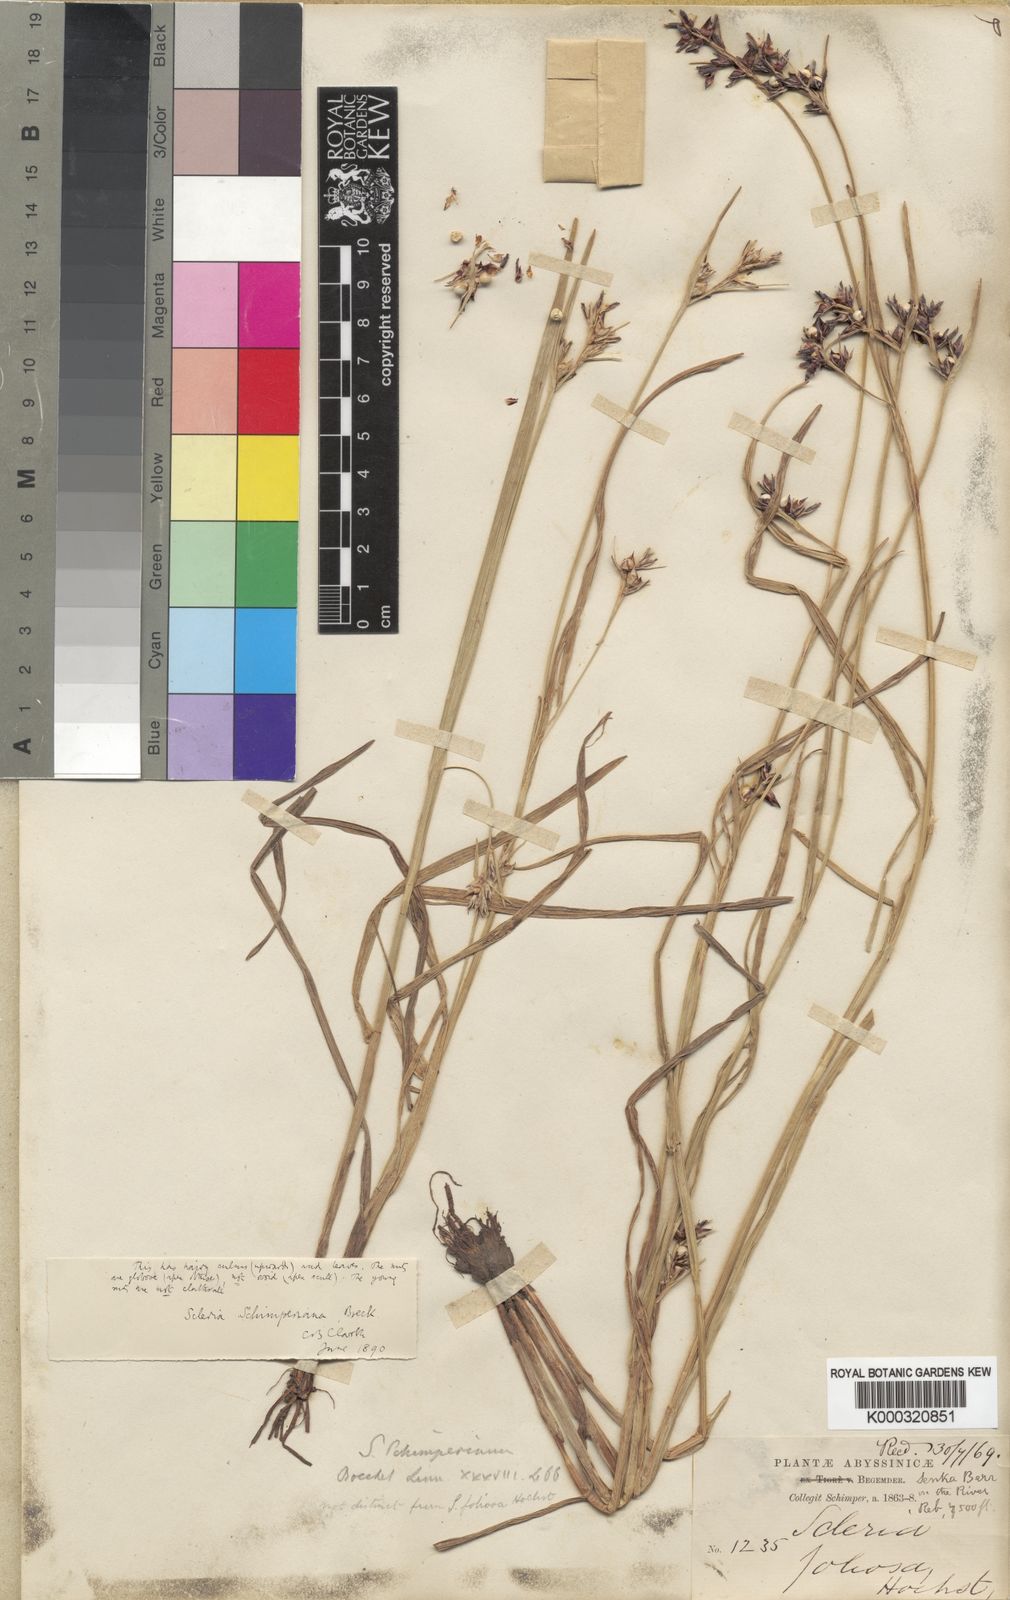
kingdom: Plantae
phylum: Tracheophyta
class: Liliopsida
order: Poales
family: Cyperaceae
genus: Scleria
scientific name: Scleria schimperiana
